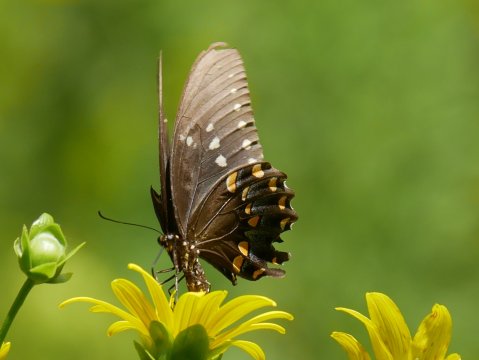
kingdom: Animalia
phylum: Arthropoda
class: Insecta
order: Lepidoptera
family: Papilionidae
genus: Pterourus
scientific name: Pterourus troilus
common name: Spicebush Swallowtail
